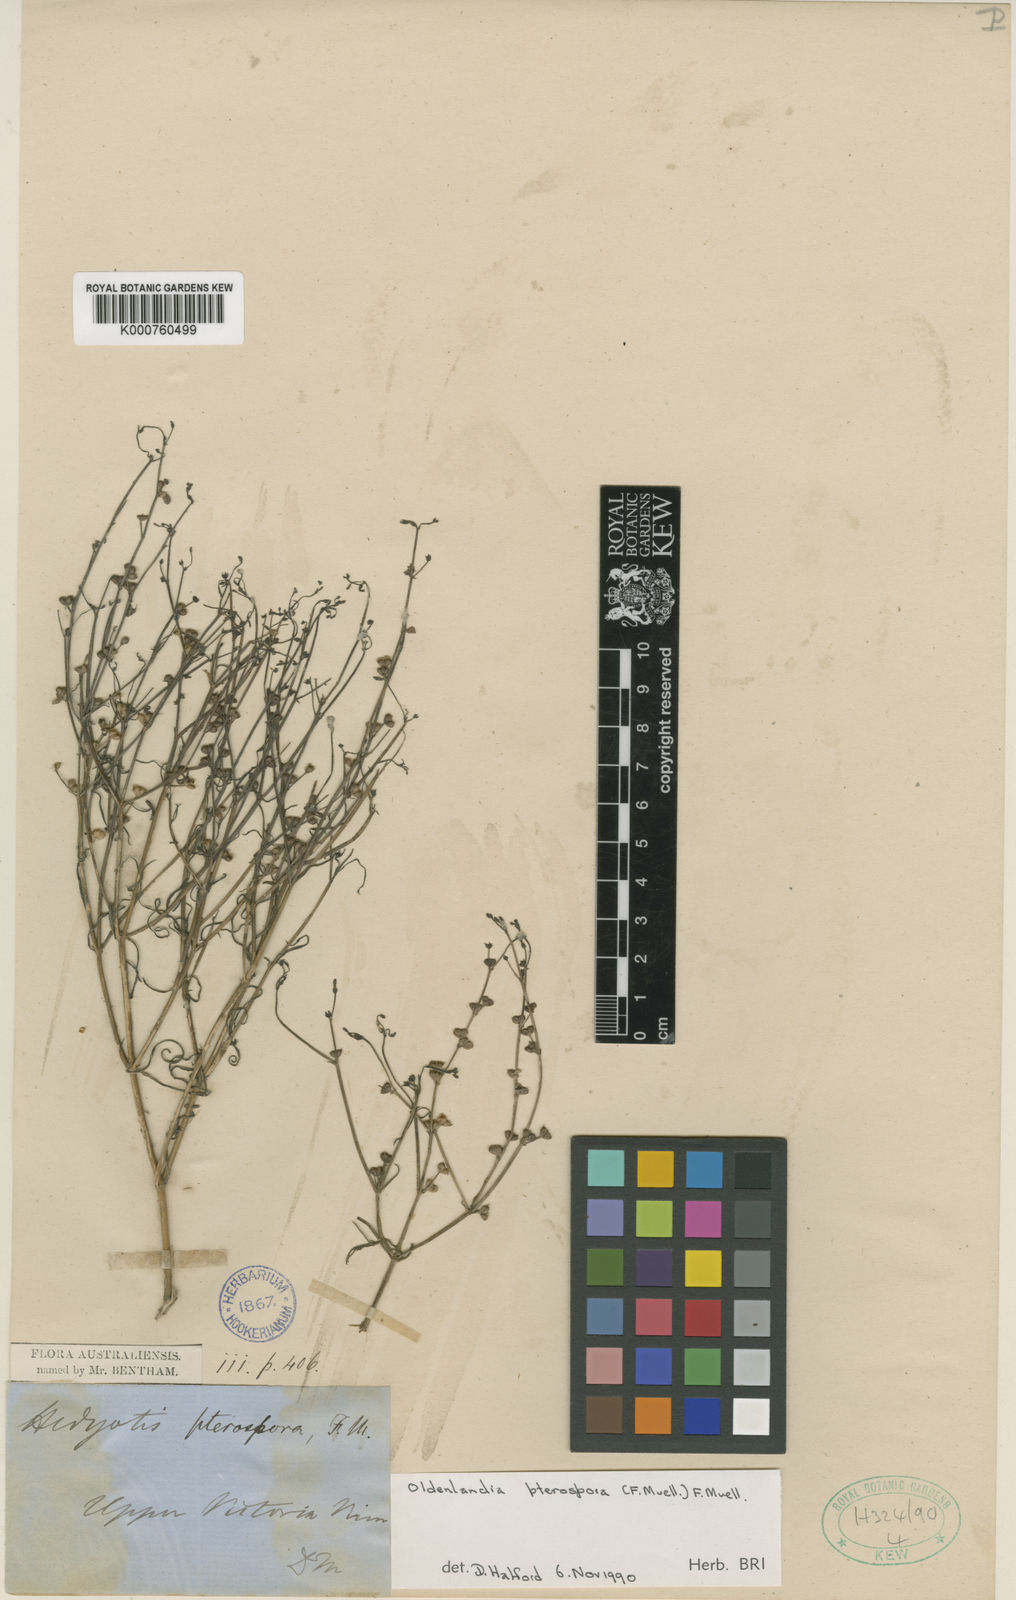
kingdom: Plantae
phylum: Tracheophyta
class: Magnoliopsida
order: Gentianales
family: Rubiaceae
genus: Paranotis
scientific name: Paranotis pterospora
